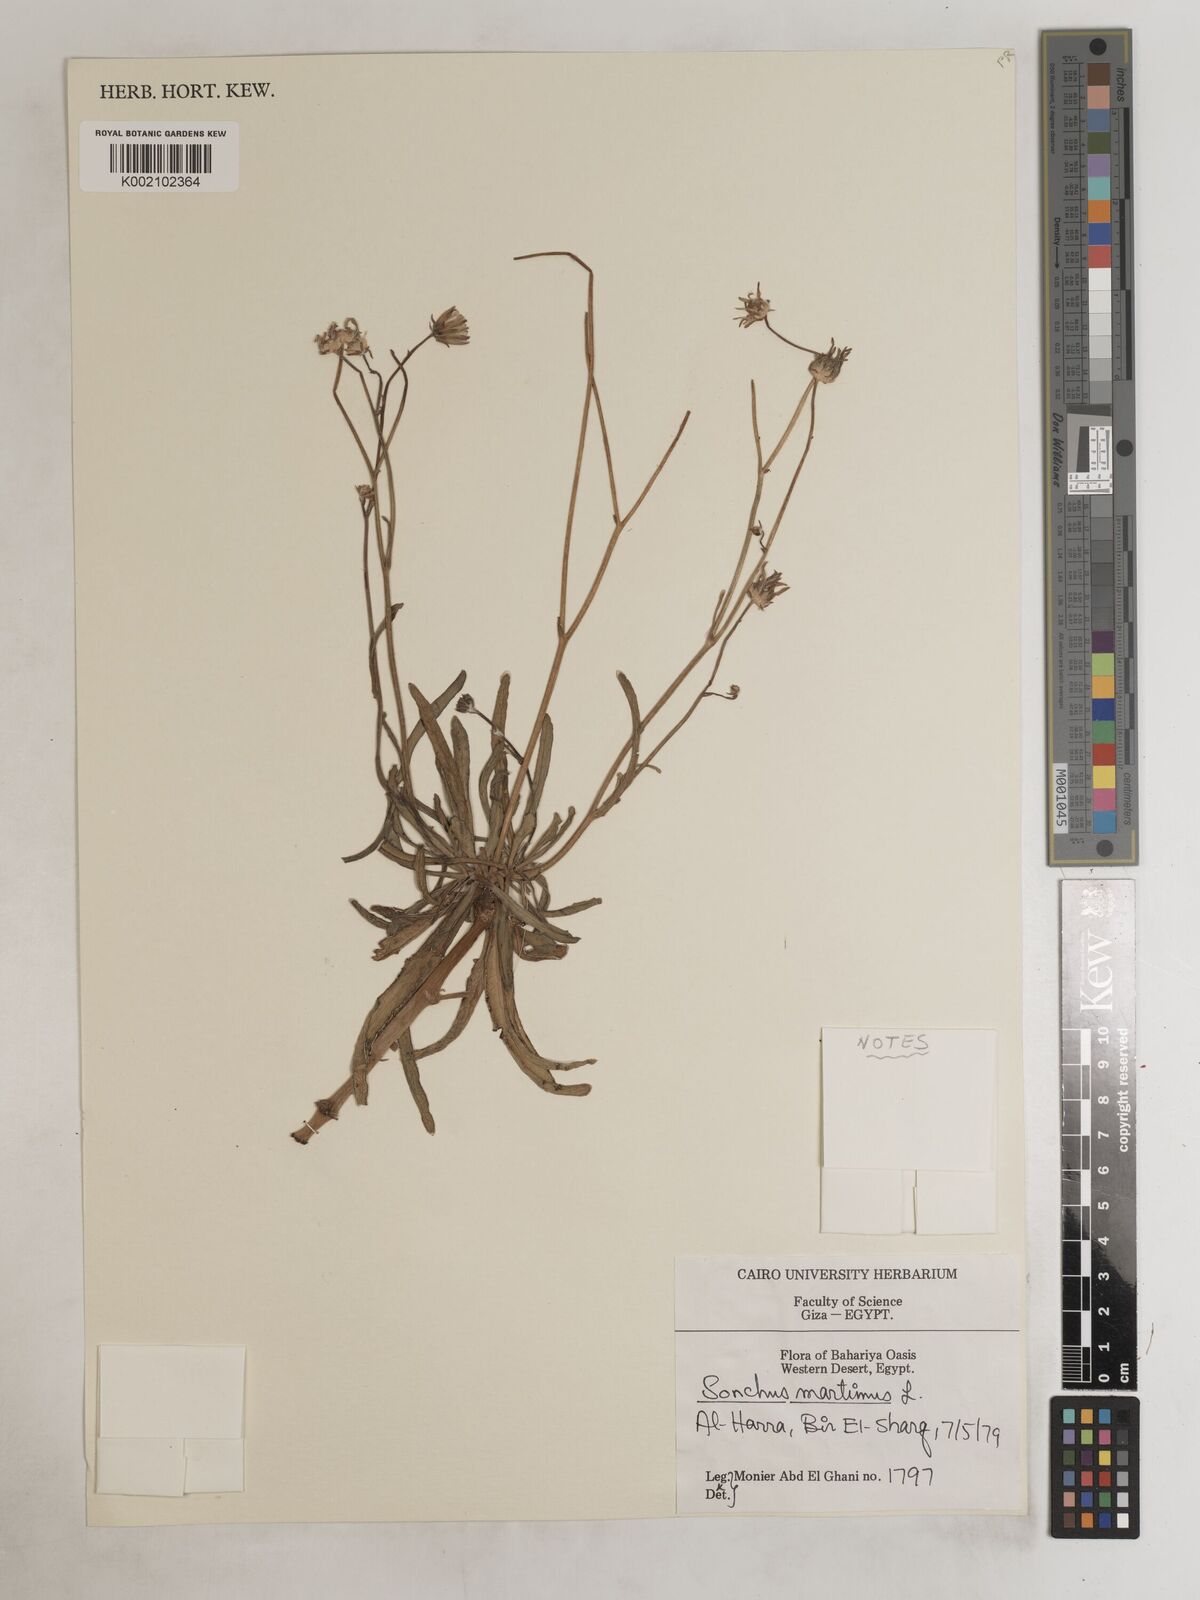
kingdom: Plantae
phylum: Tracheophyta
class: Magnoliopsida
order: Asterales
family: Asteraceae
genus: Sonchus
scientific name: Sonchus maritimus
